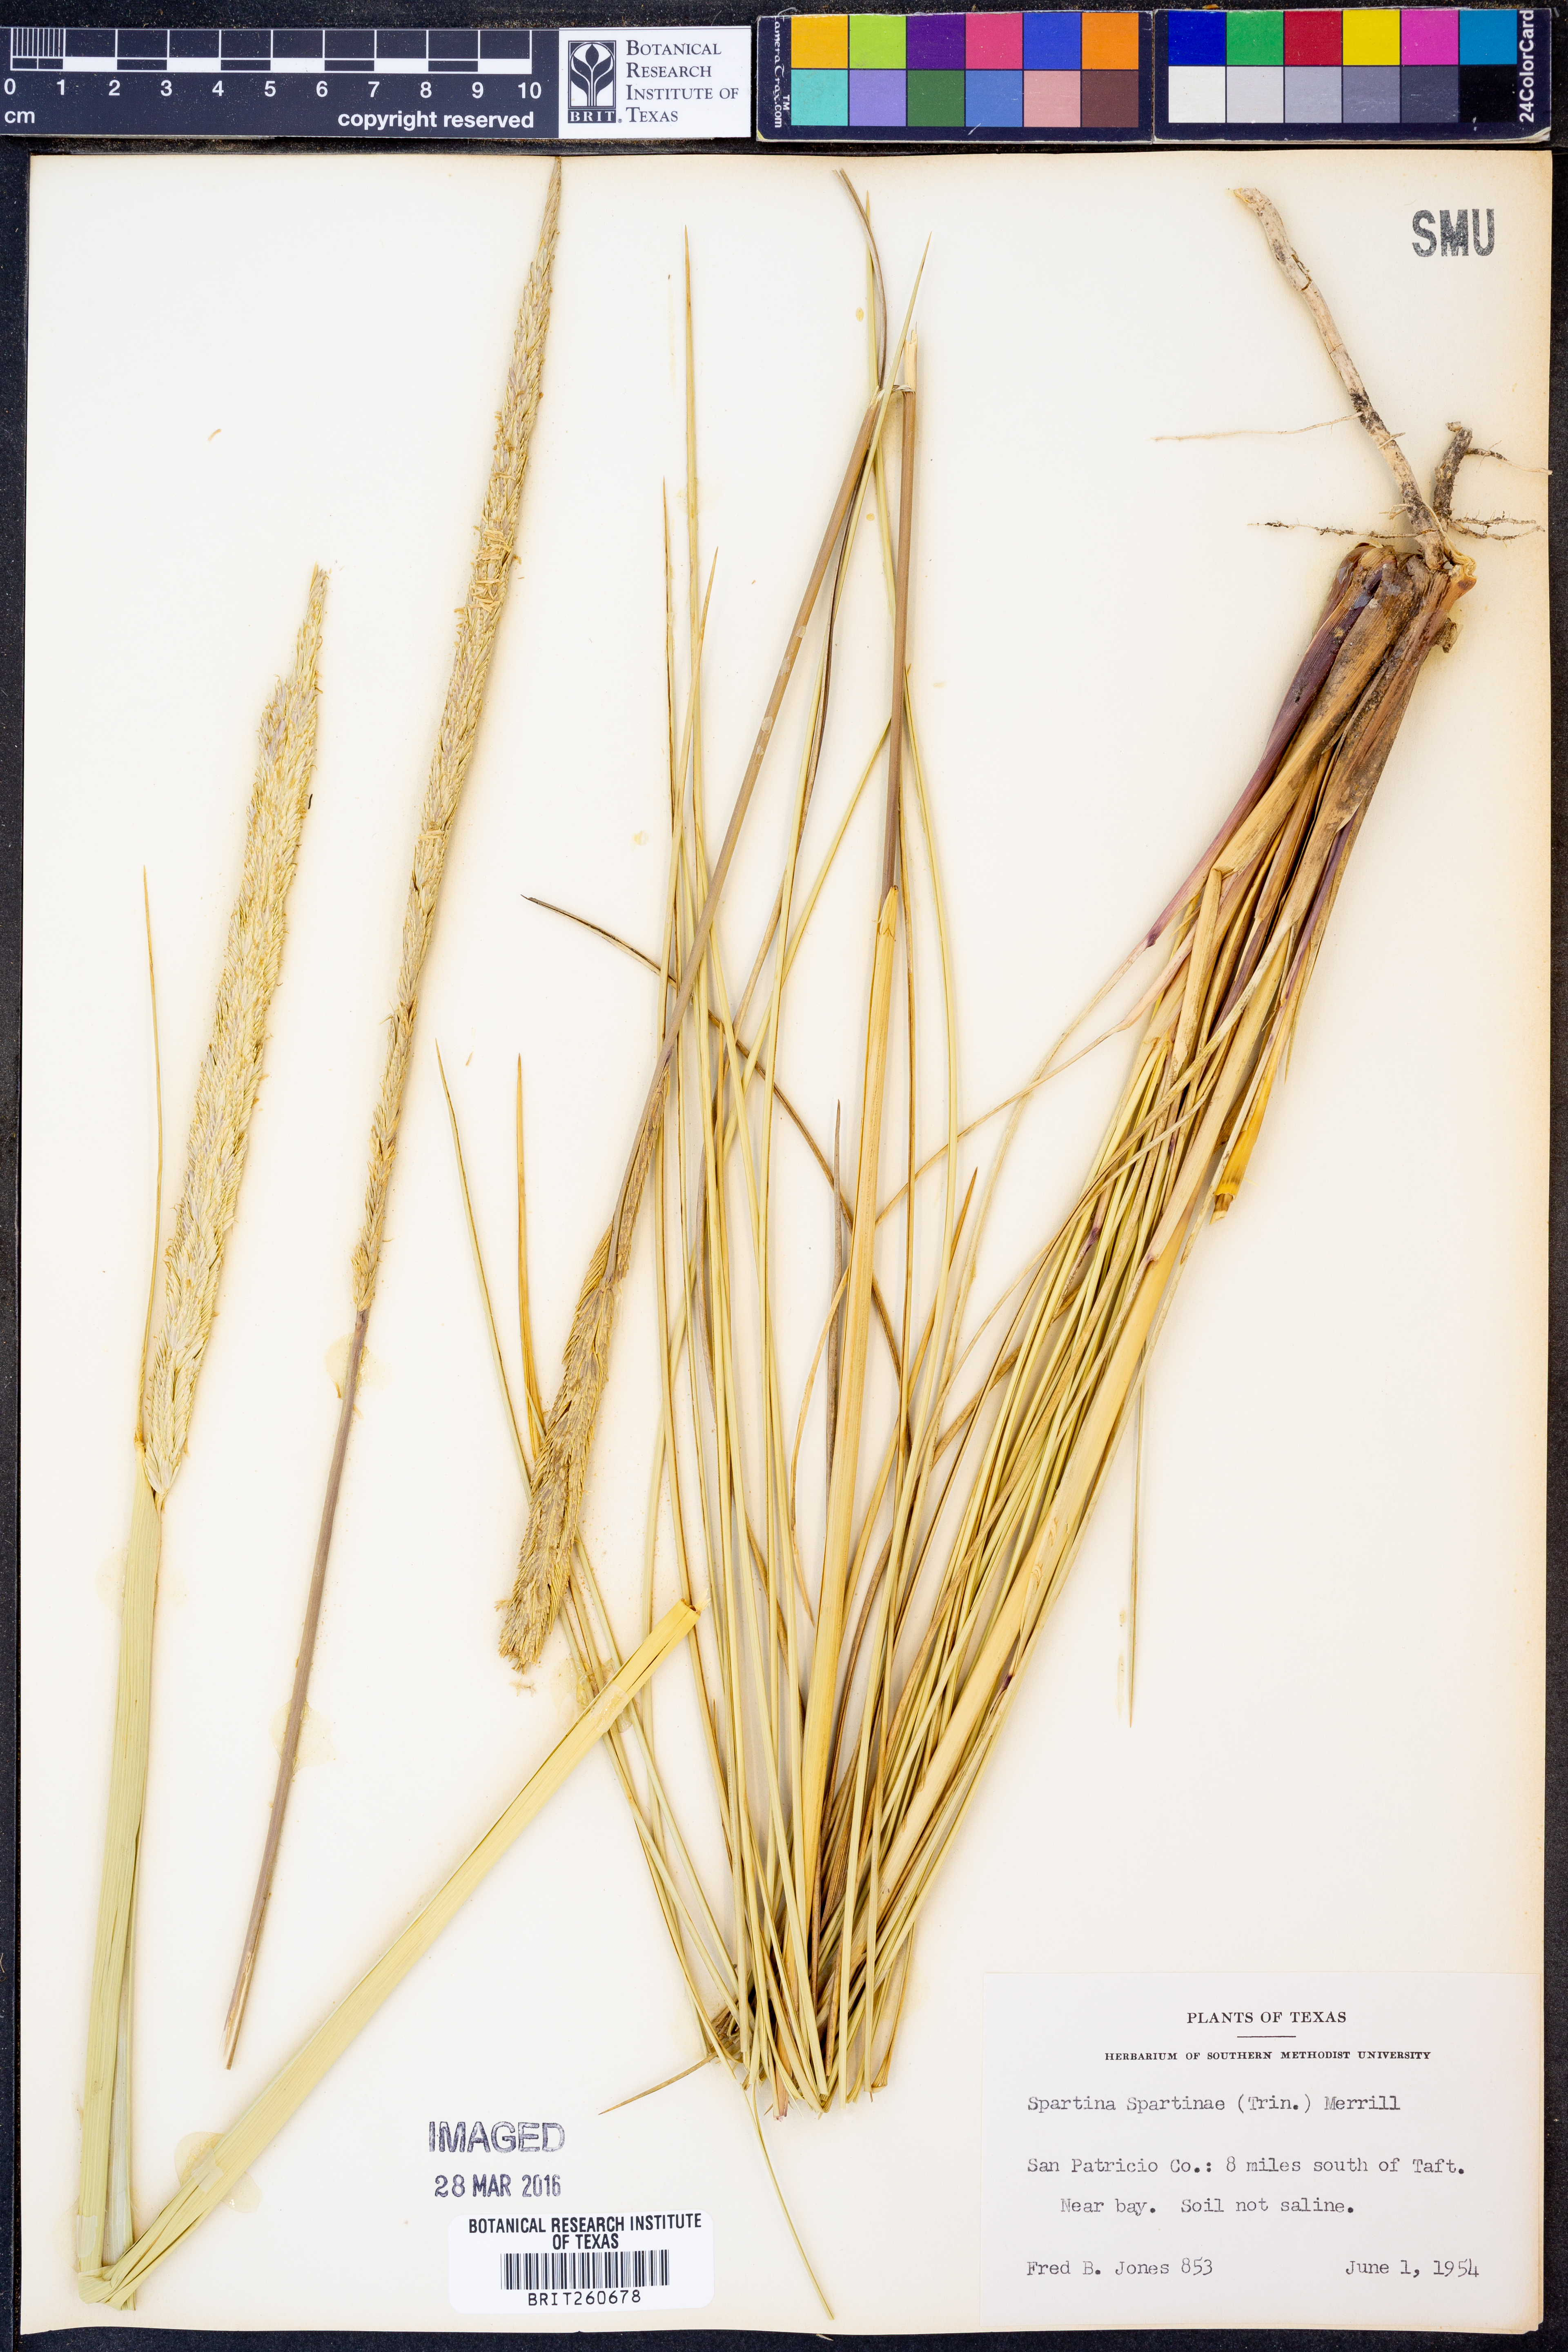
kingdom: Plantae
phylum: Tracheophyta
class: Liliopsida
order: Poales
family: Poaceae
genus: Sporobolus
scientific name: Sporobolus spartinae
